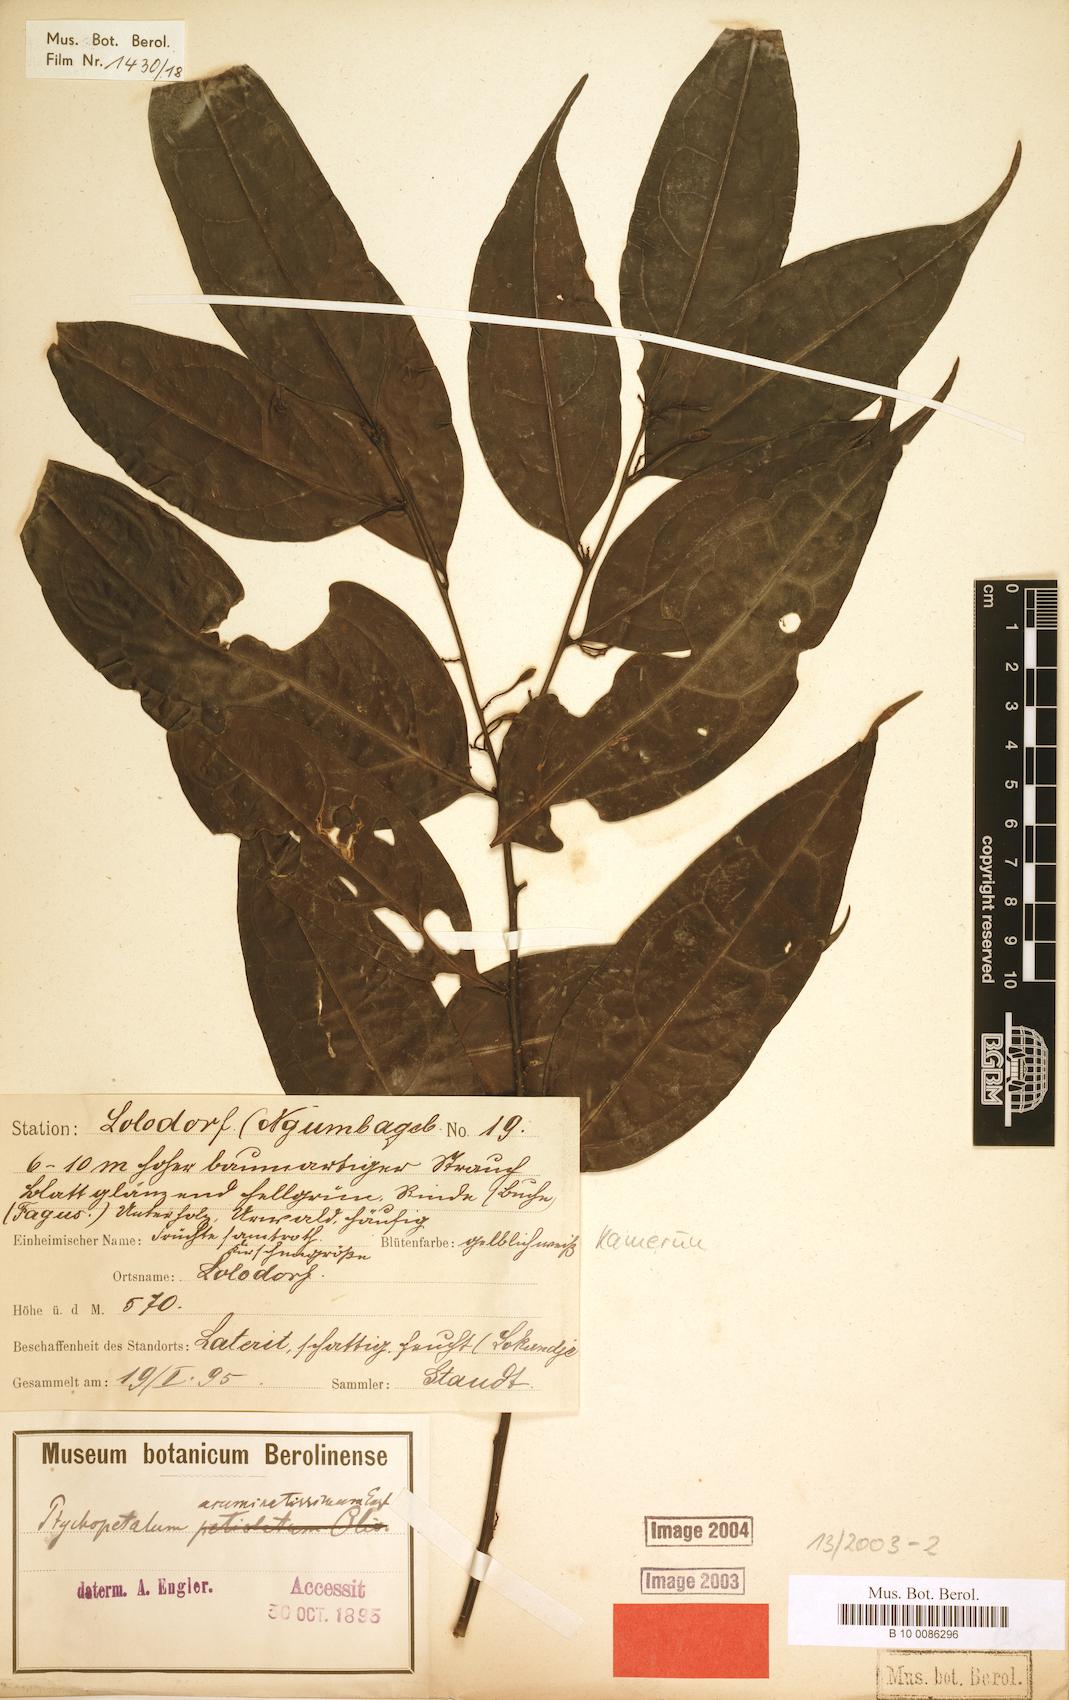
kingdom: Plantae
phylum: Tracheophyta
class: Magnoliopsida
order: Santalales
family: Olacaceae
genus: Ptychopetalum
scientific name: Ptychopetalum petiolatum
